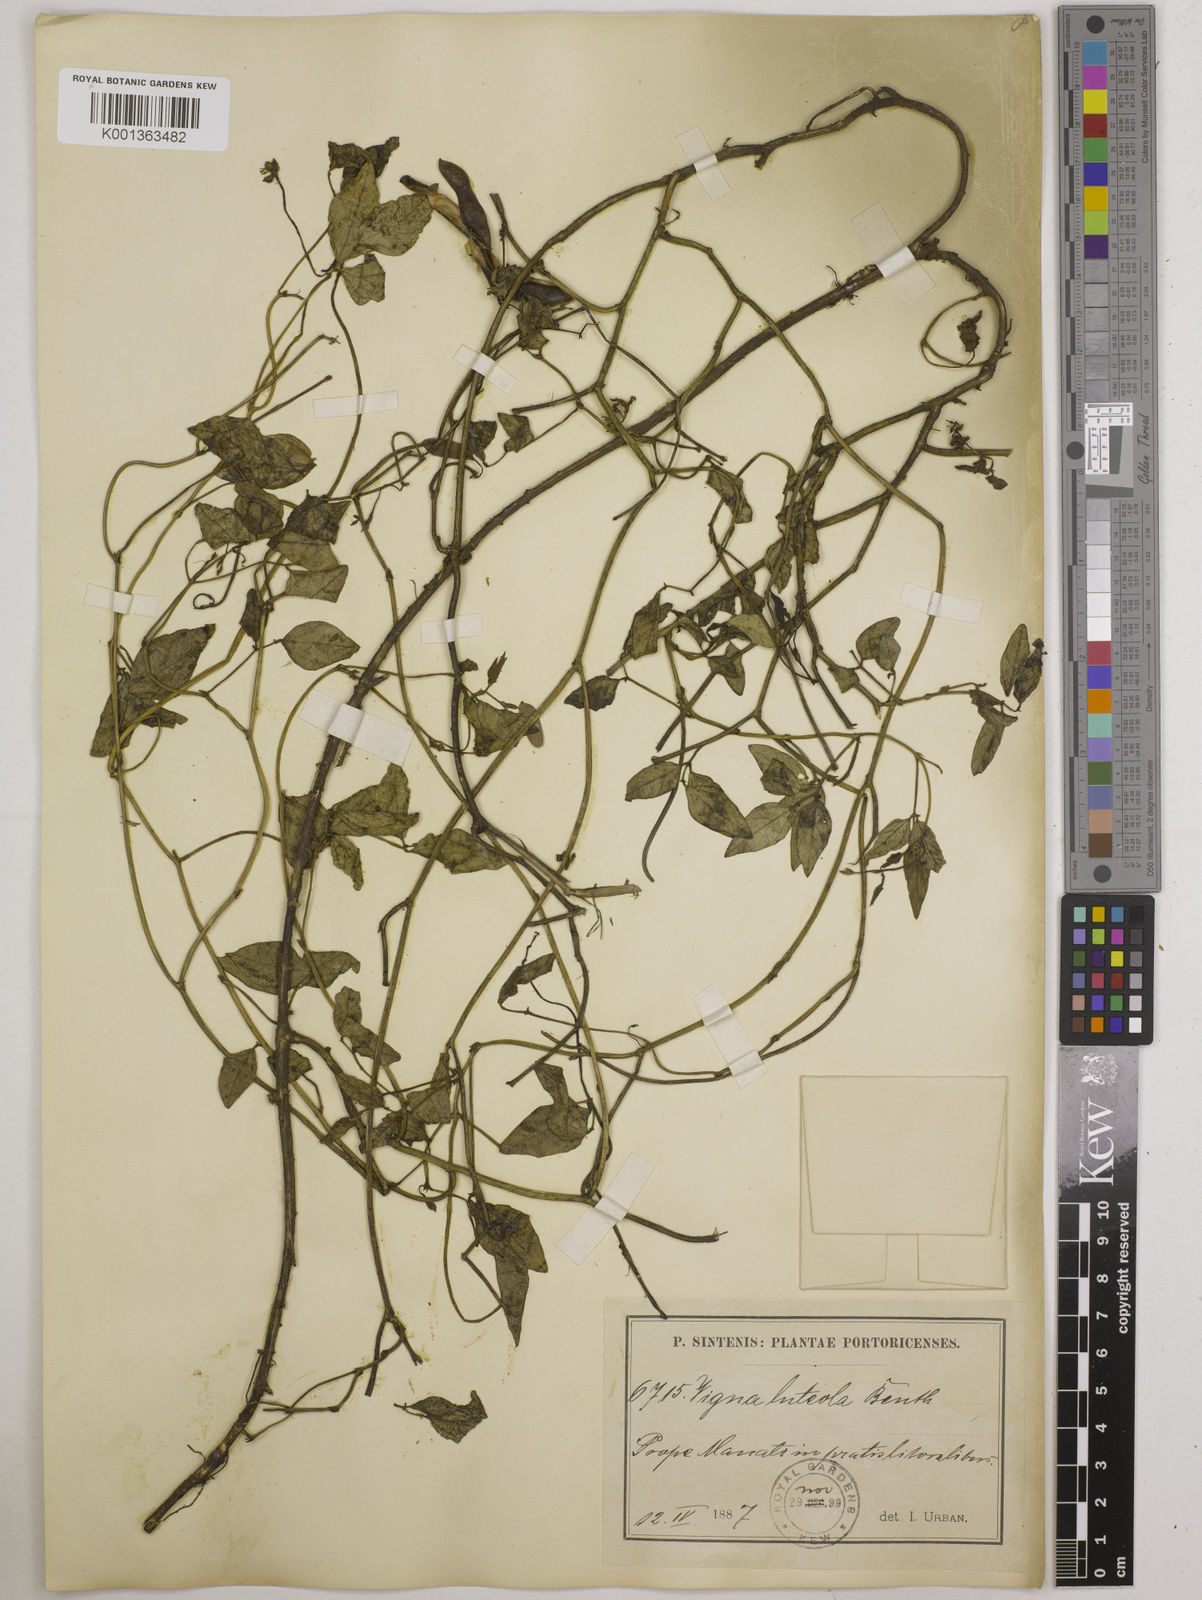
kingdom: Plantae
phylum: Tracheophyta
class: Magnoliopsida
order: Fabales
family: Fabaceae
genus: Vigna
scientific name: Vigna luteola
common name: Hairypod cowpea
